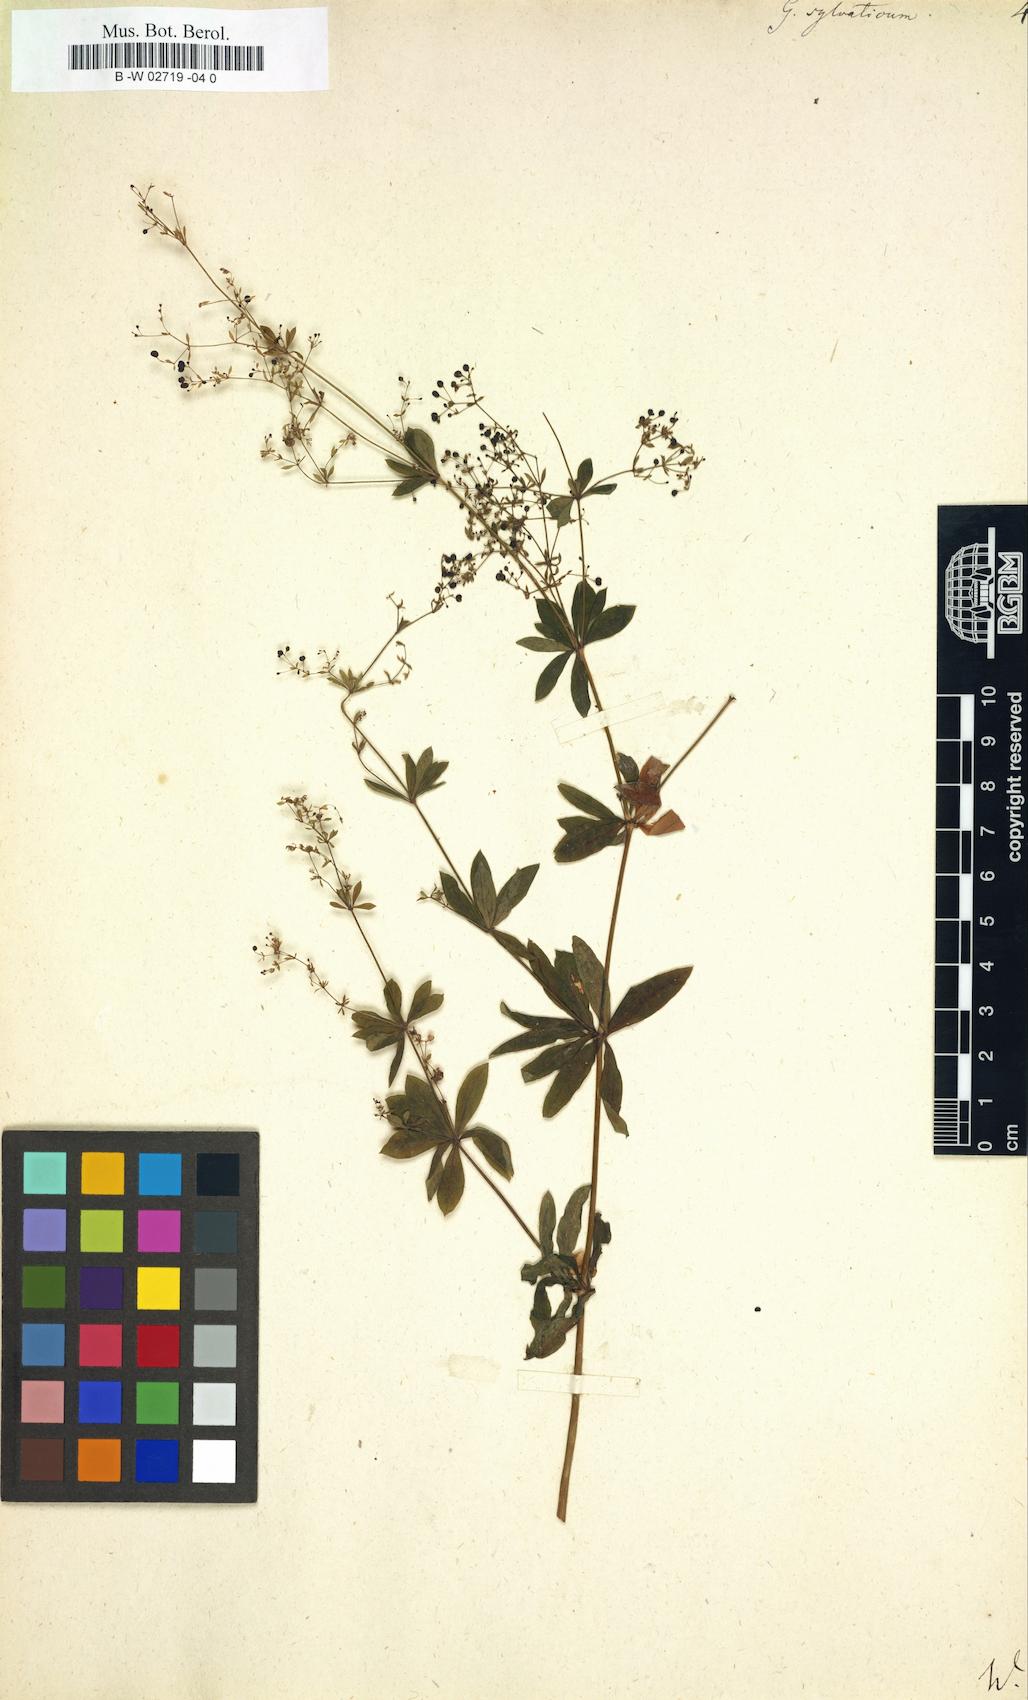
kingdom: Plantae
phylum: Tracheophyta
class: Magnoliopsida
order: Gentianales
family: Rubiaceae
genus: Galium
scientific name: Galium sylvaticum
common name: Wood bedstraw
